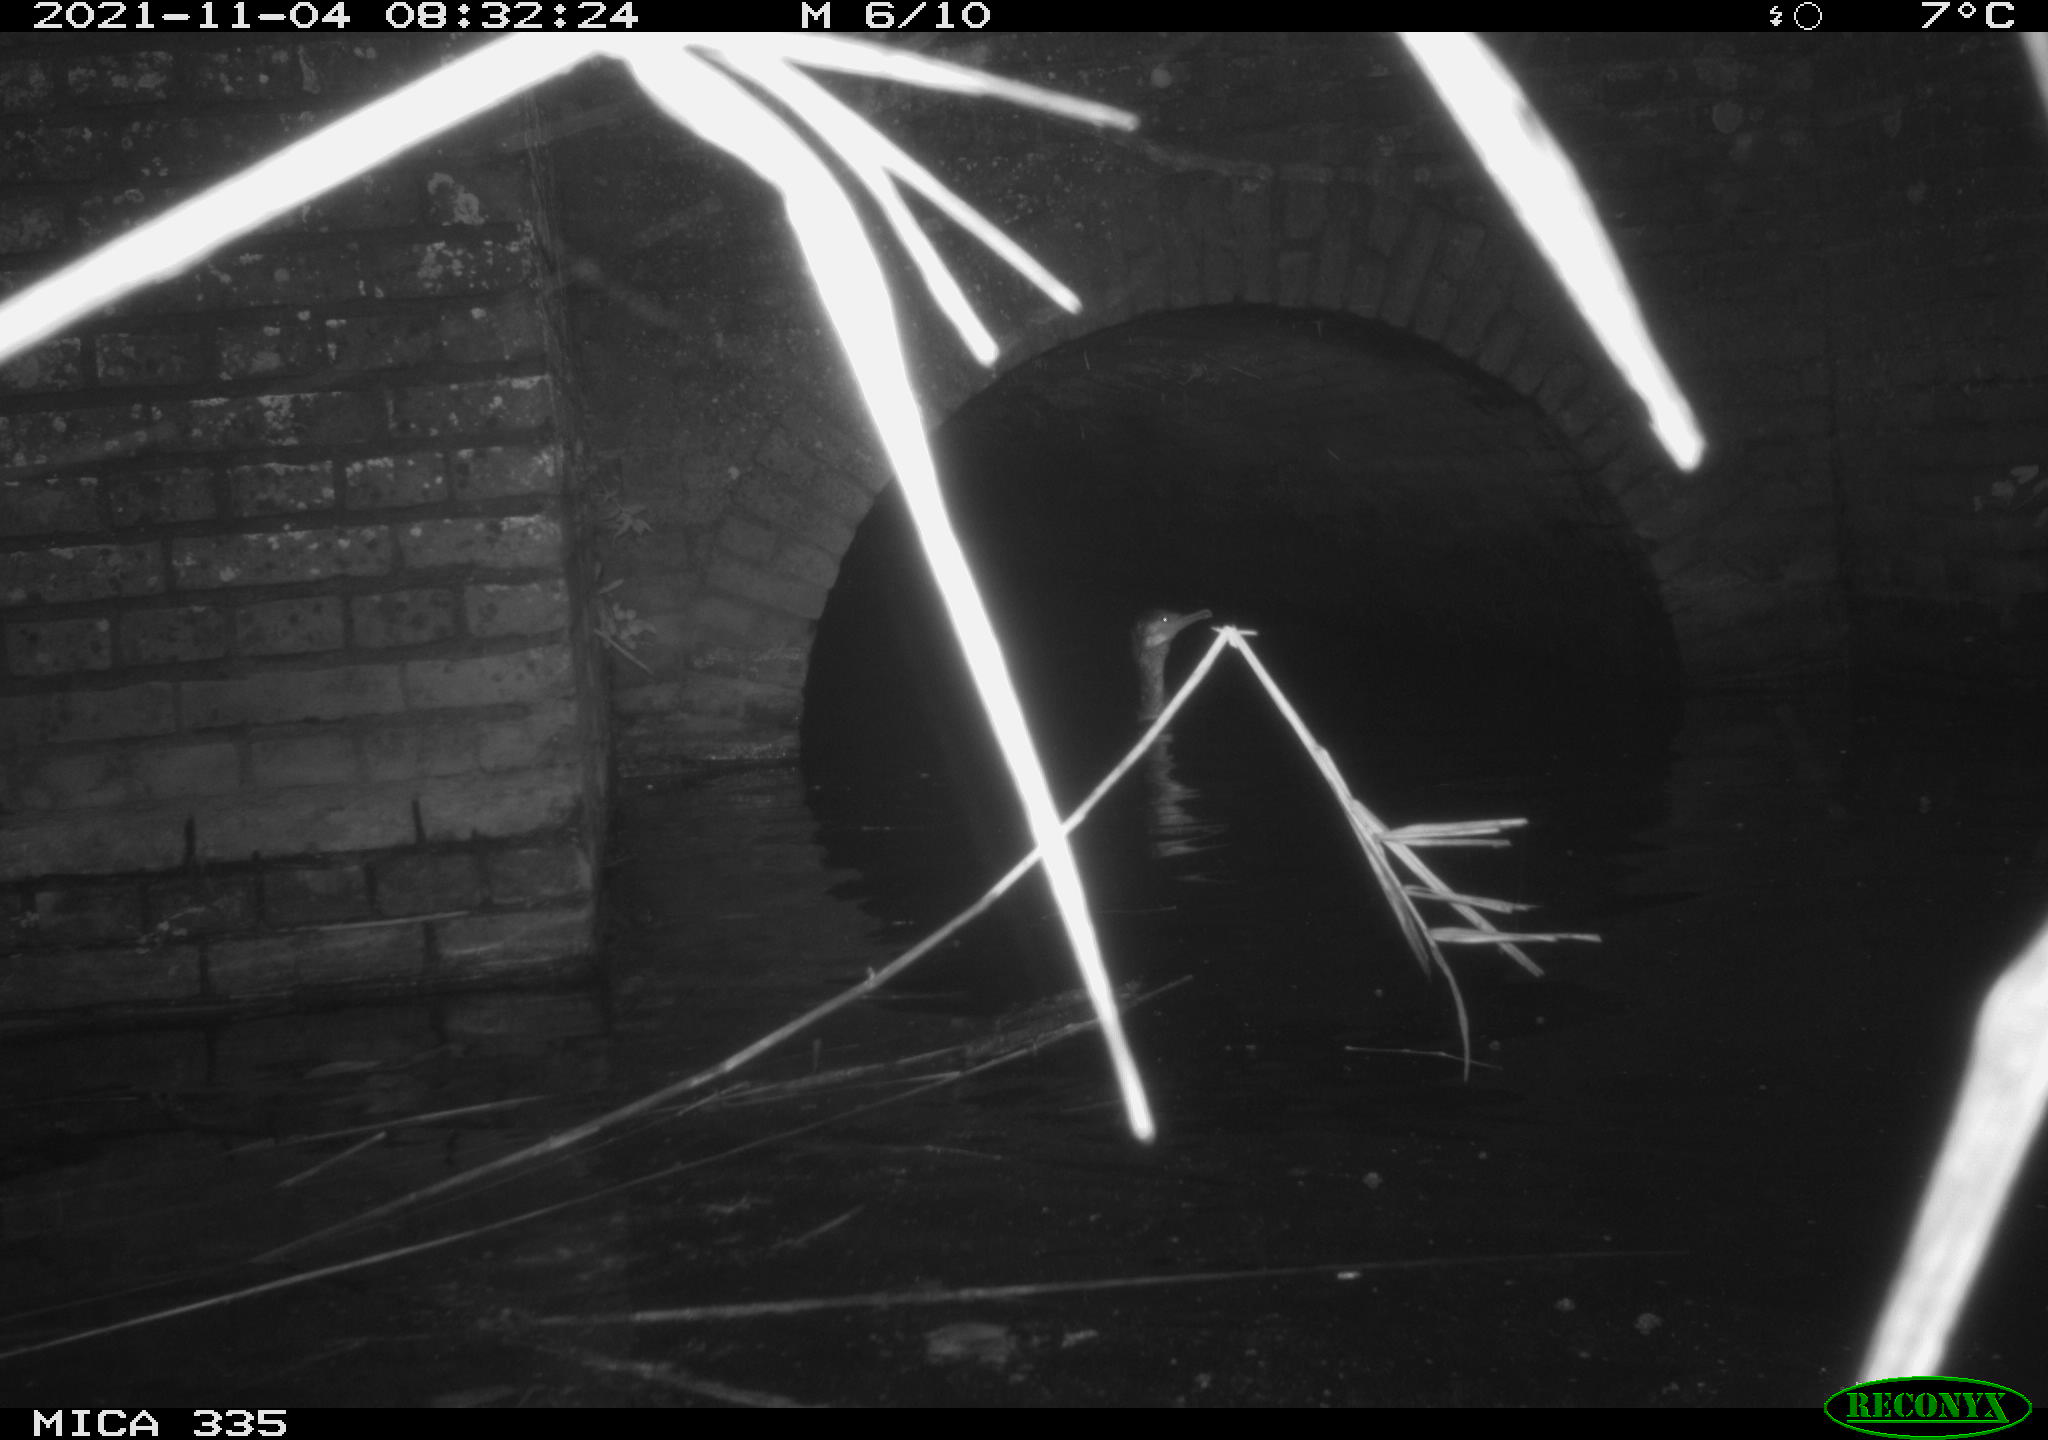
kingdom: Animalia
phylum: Chordata
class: Aves
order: Suliformes
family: Phalacrocoracidae
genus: Phalacrocorax
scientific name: Phalacrocorax carbo
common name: Great cormorant
